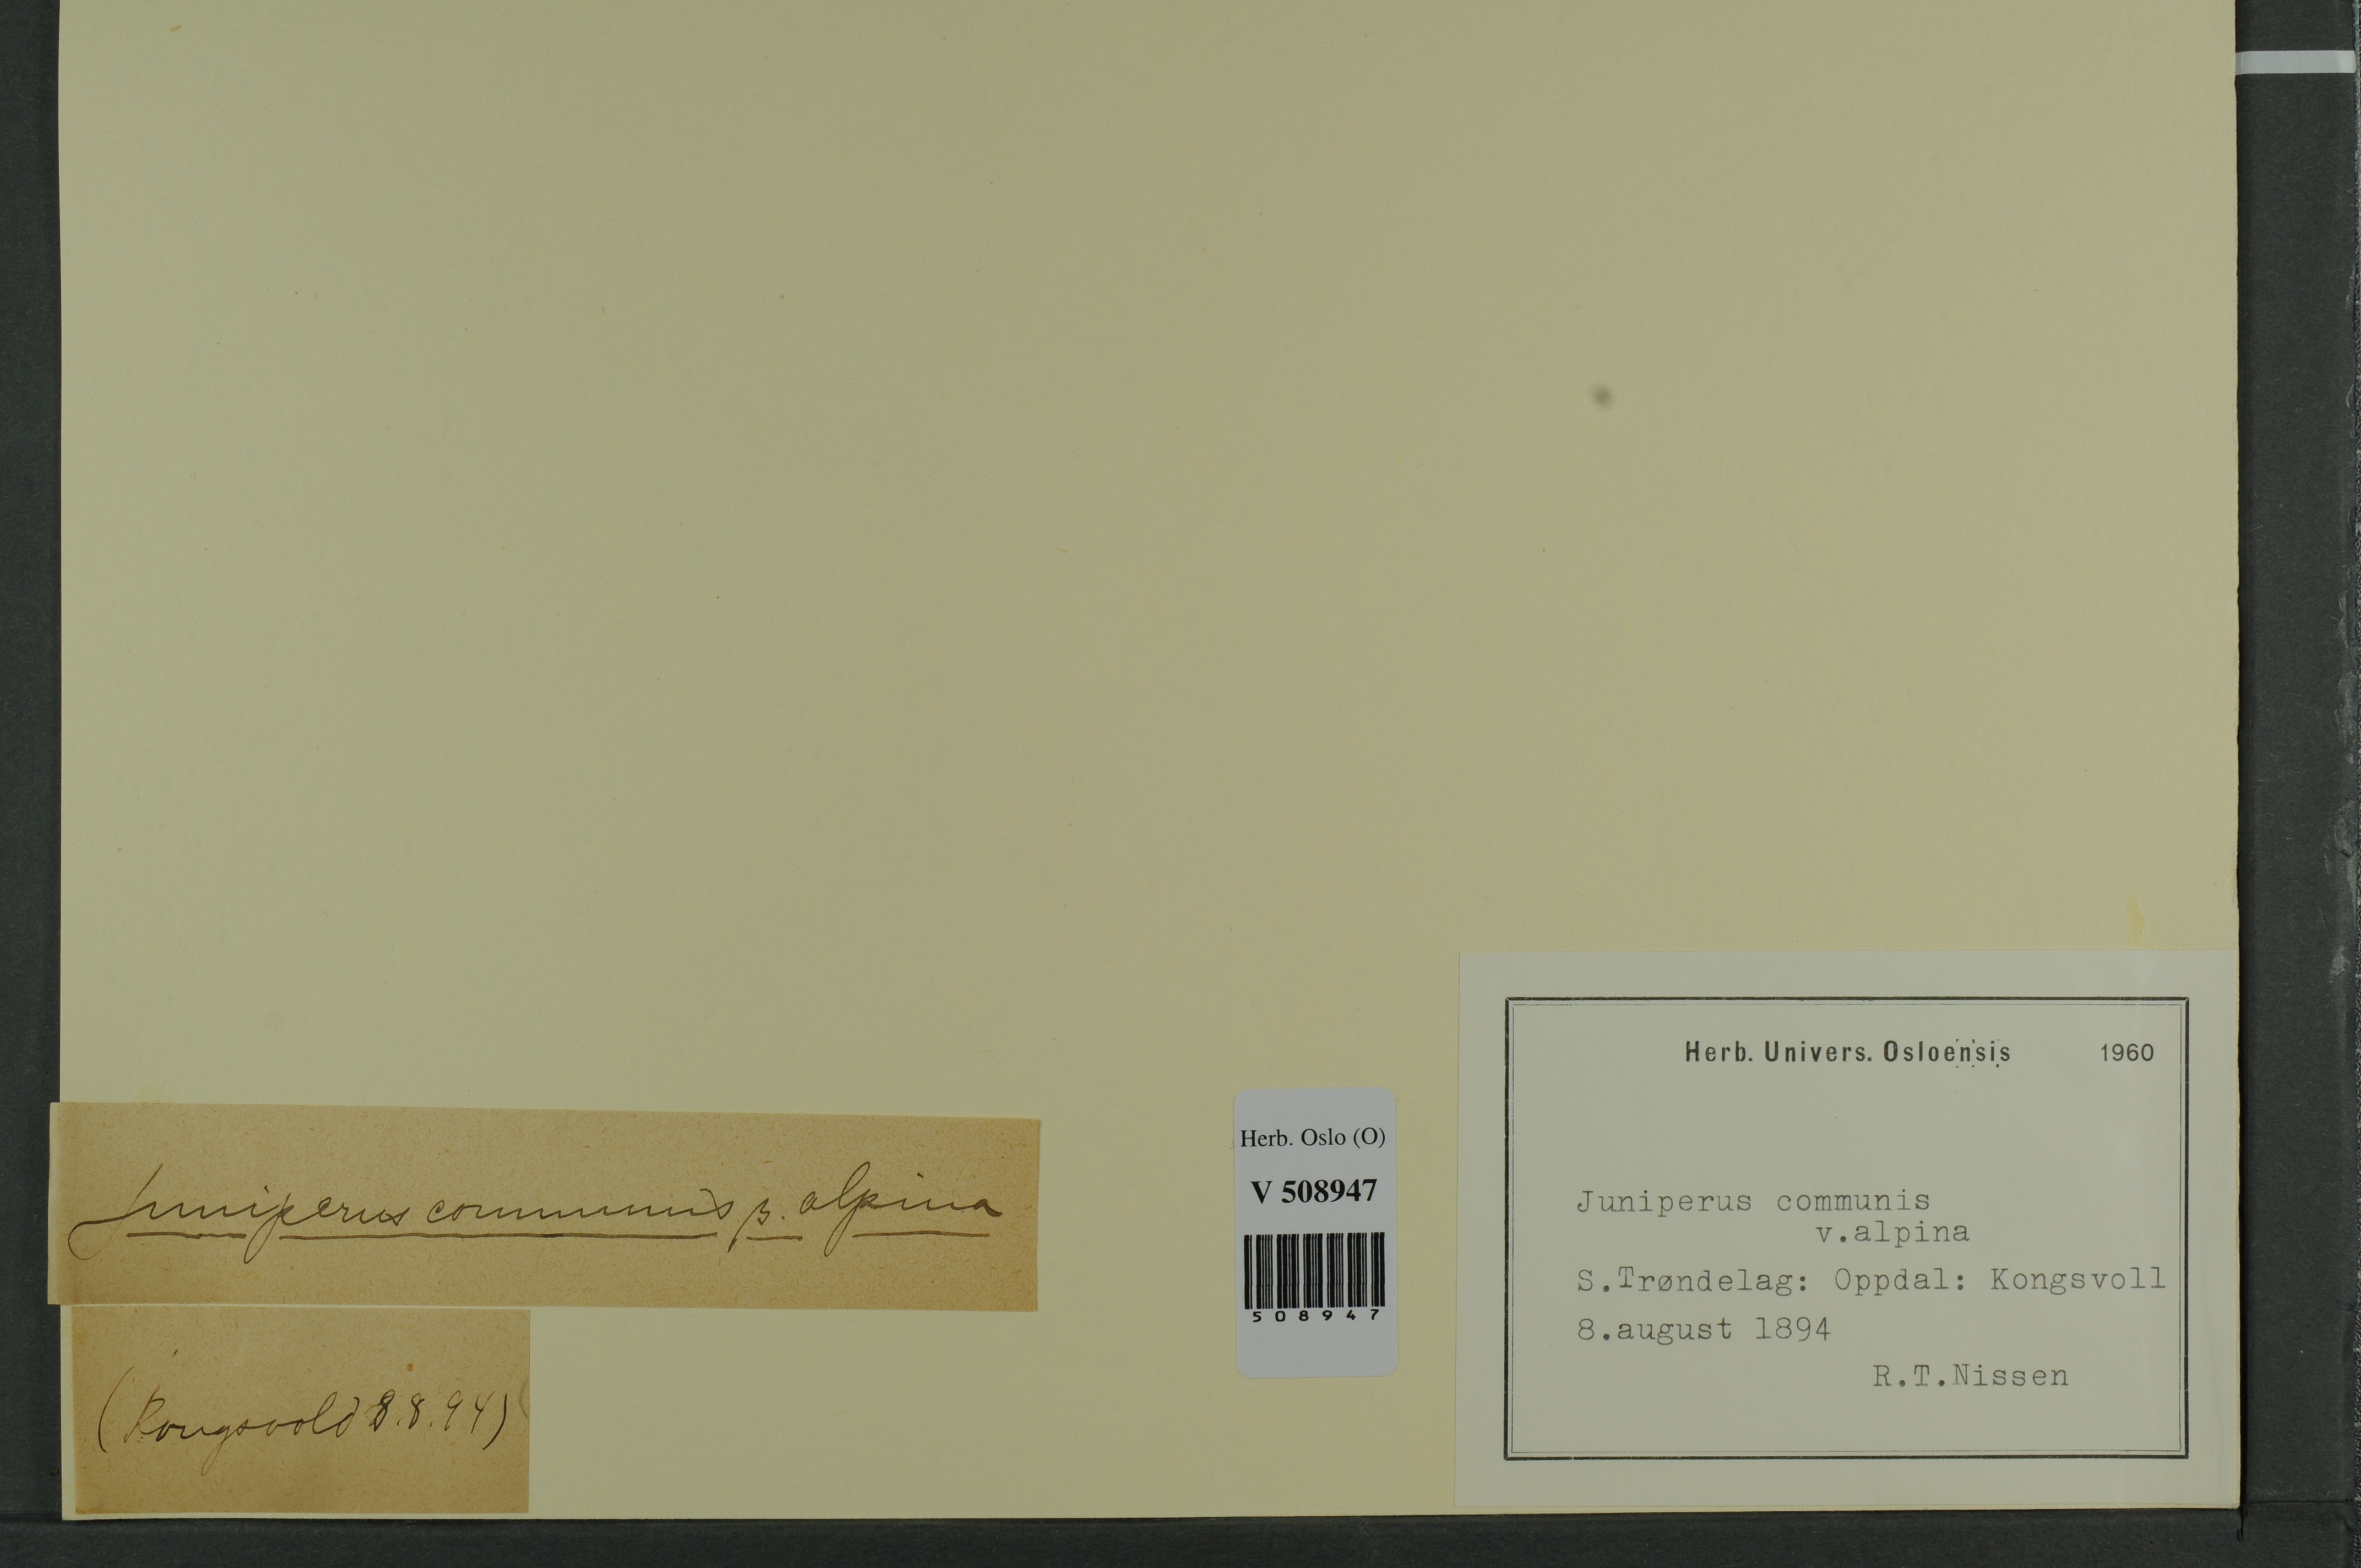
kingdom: Plantae
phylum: Tracheophyta
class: Pinopsida
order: Pinales
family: Cupressaceae
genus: Juniperus
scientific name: Juniperus communis
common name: Common juniper
